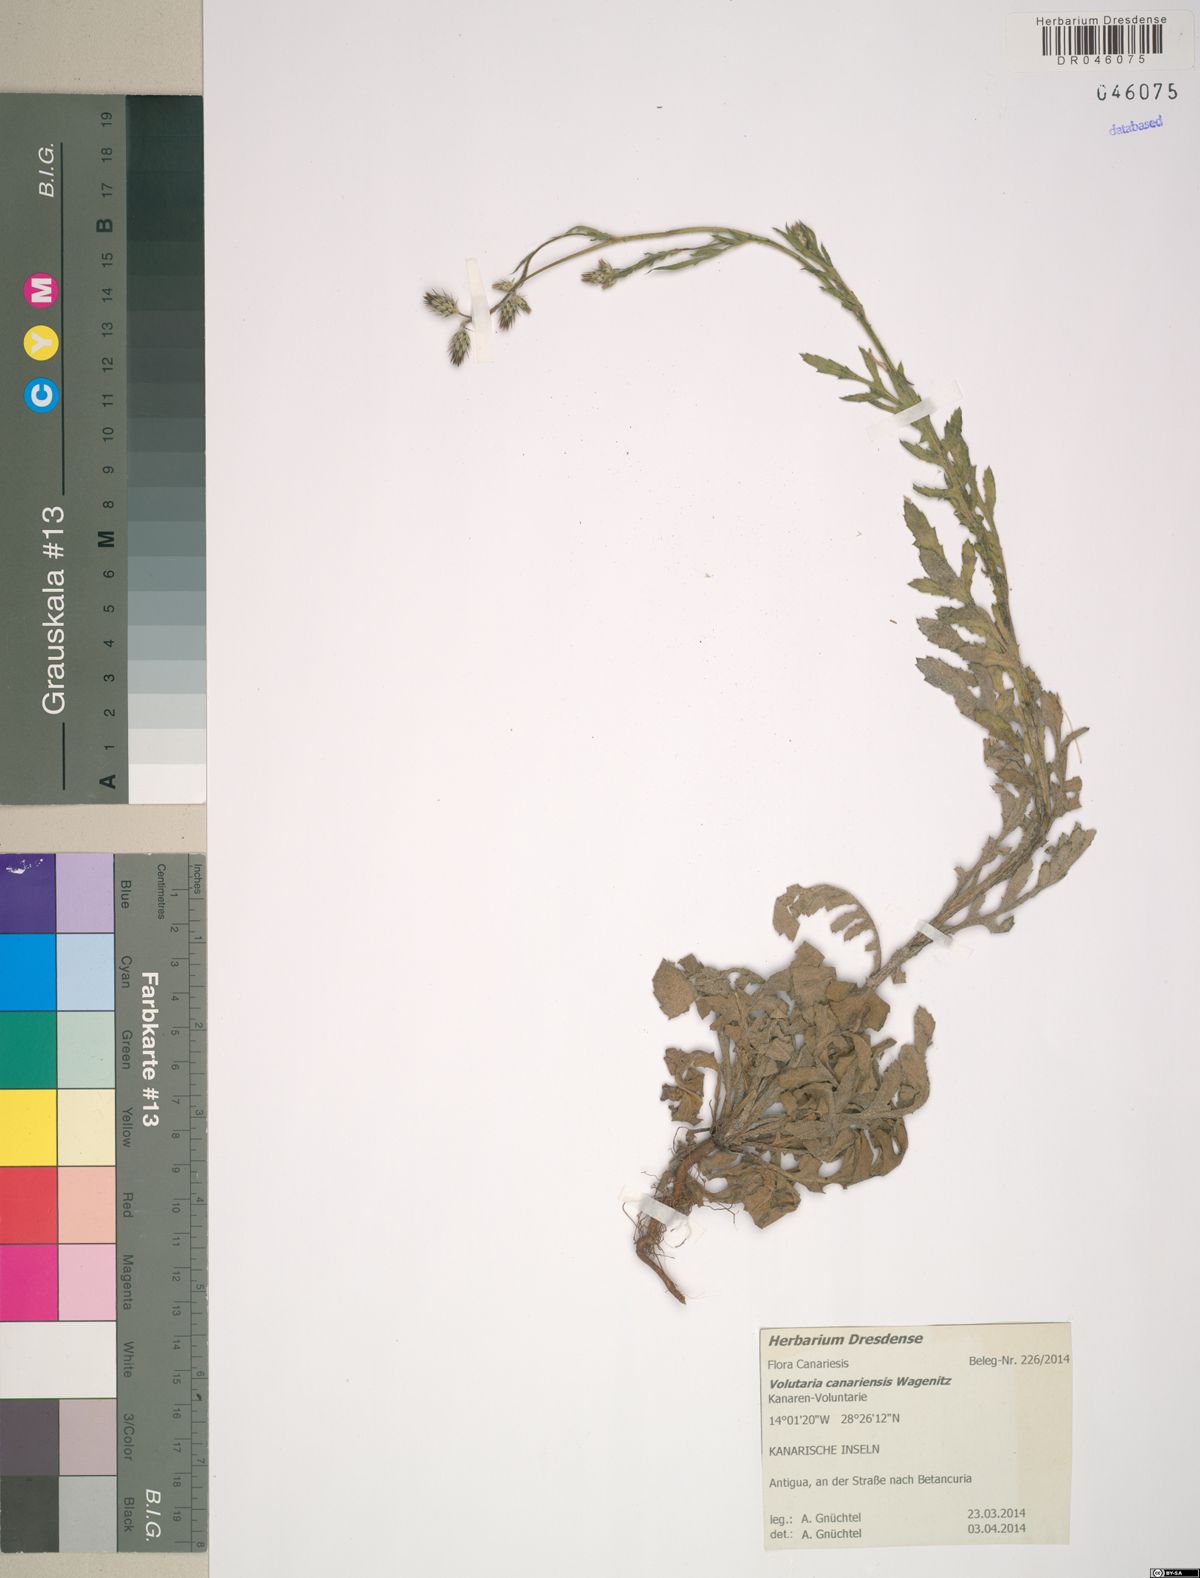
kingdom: Plantae
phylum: Tracheophyta
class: Magnoliopsida
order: Asterales
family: Asteraceae
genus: Volutaria
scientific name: Volutaria canariensis
